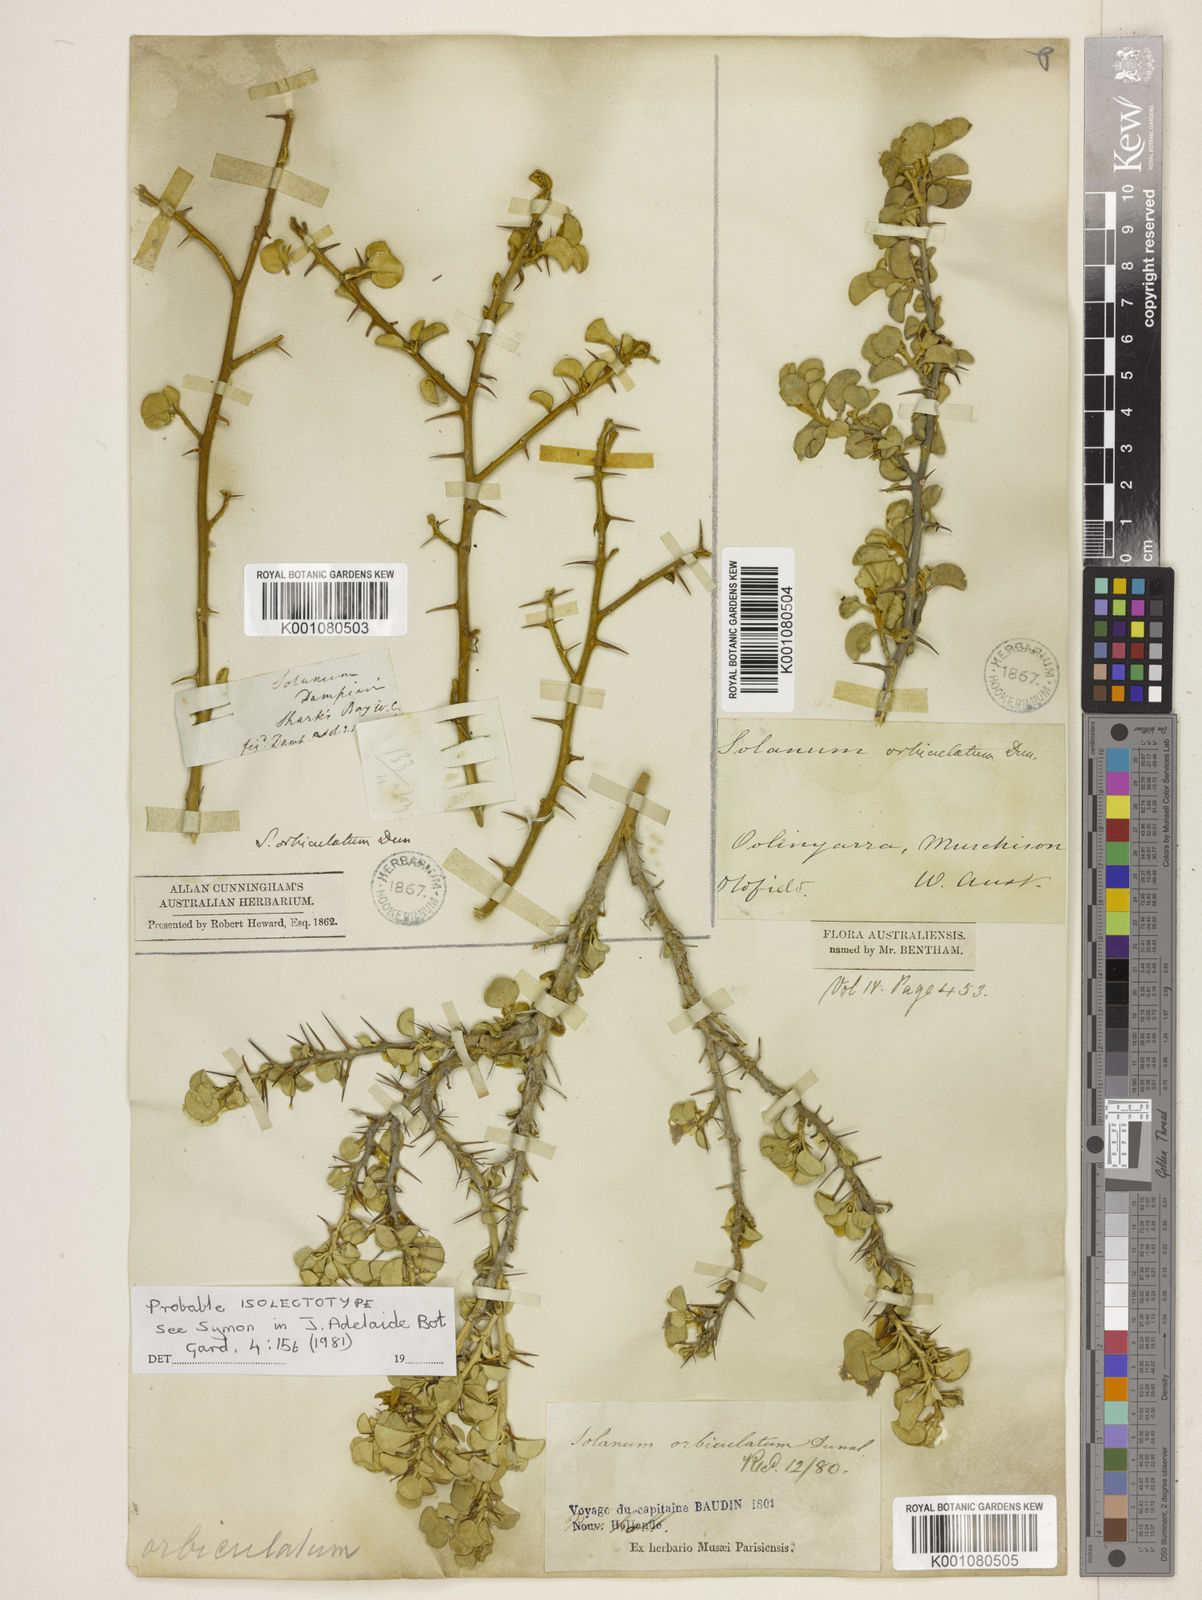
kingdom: Plantae
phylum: Tracheophyta
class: Magnoliopsida
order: Solanales
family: Solanaceae
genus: Solanum
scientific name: Solanum orbiculatum
